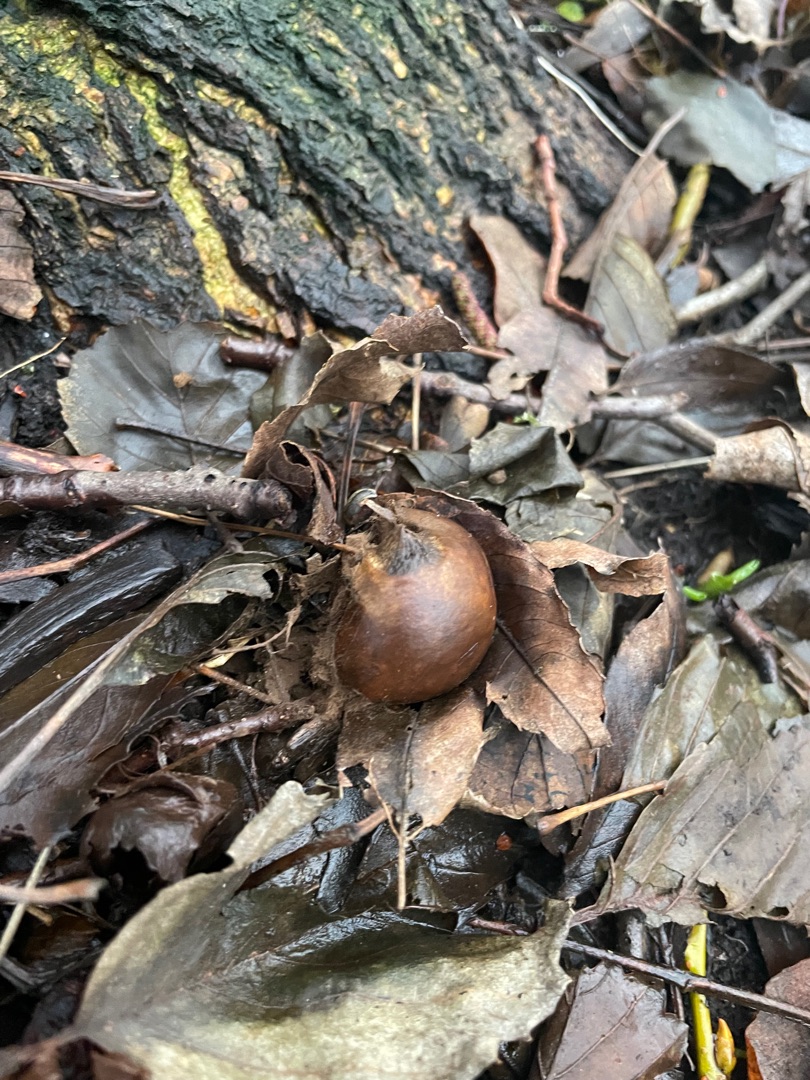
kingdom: Fungi
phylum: Basidiomycota
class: Agaricomycetes
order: Geastrales
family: Geastraceae
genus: Geastrum
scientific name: Geastrum michelianum
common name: Kødet stjernebold
